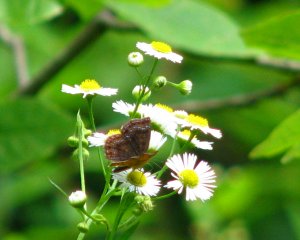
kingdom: Animalia
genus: Calephelis
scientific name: Calephelis borealis
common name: Northern Metalmark
